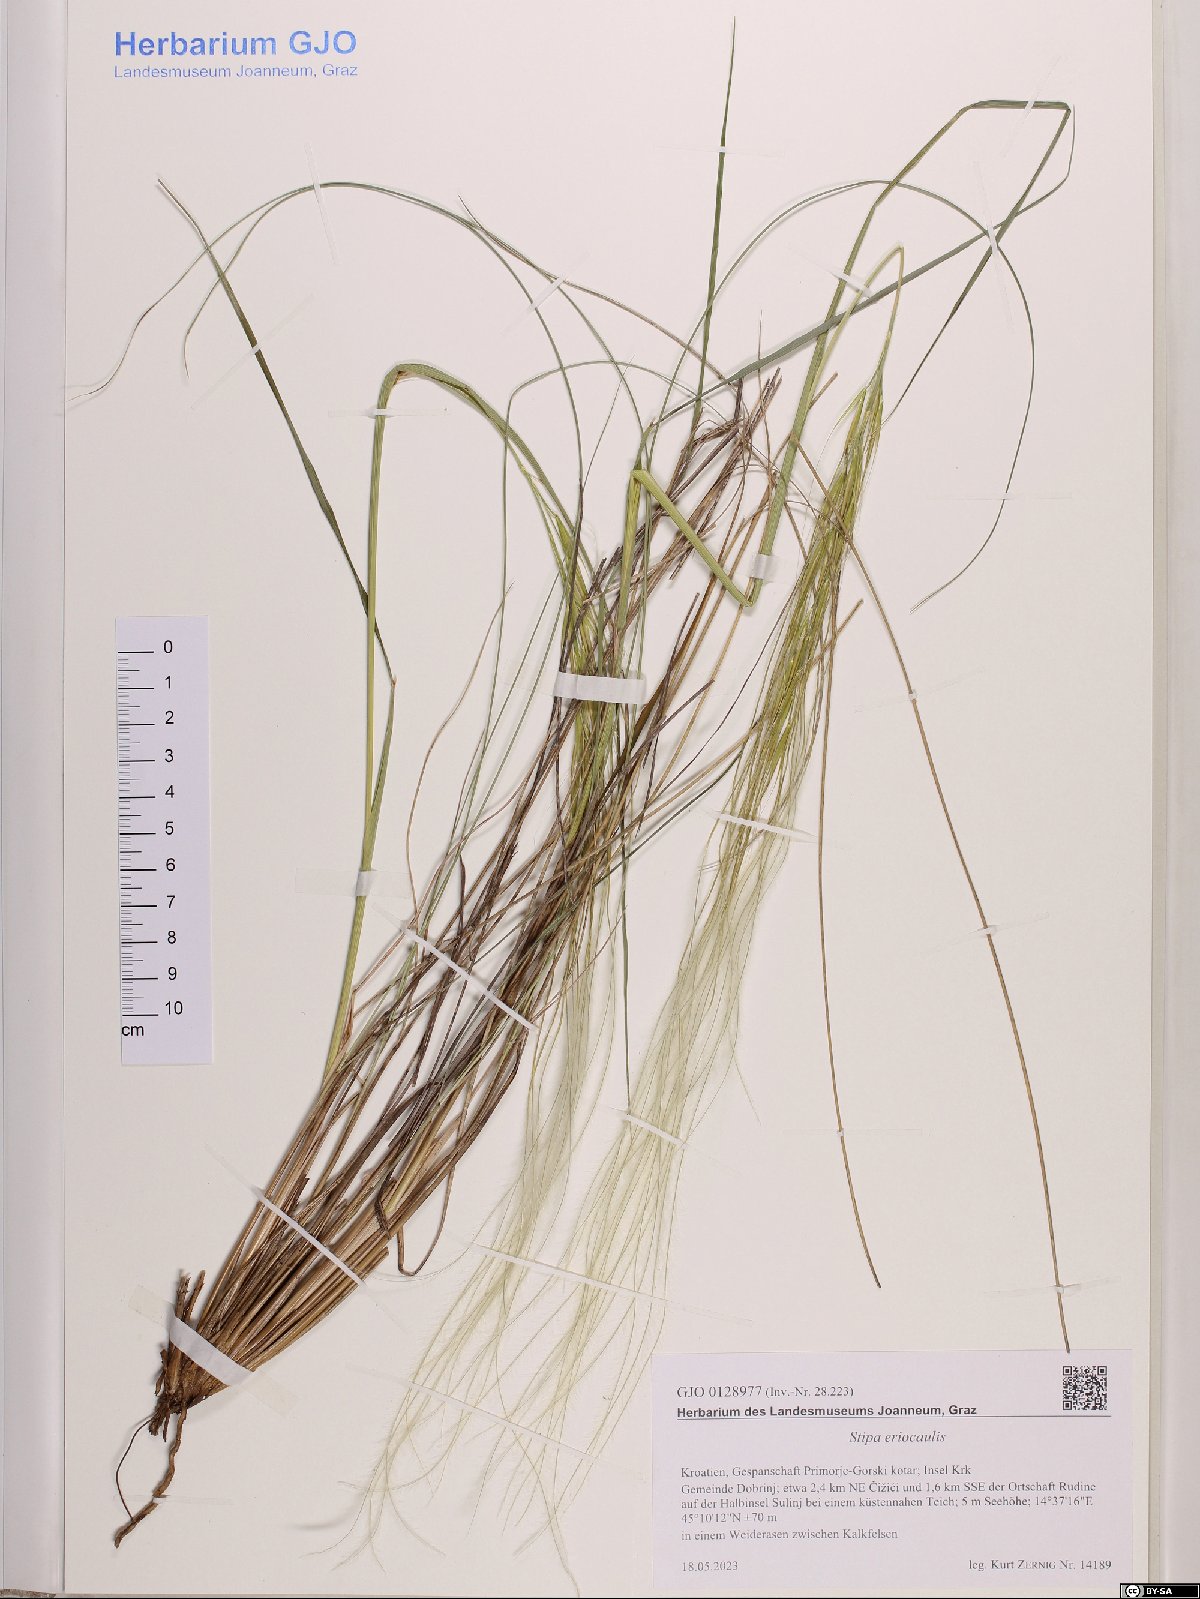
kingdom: Plantae
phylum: Tracheophyta
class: Liliopsida
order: Poales
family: Poaceae
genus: Stipa
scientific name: Stipa pennata
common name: European feather grass
